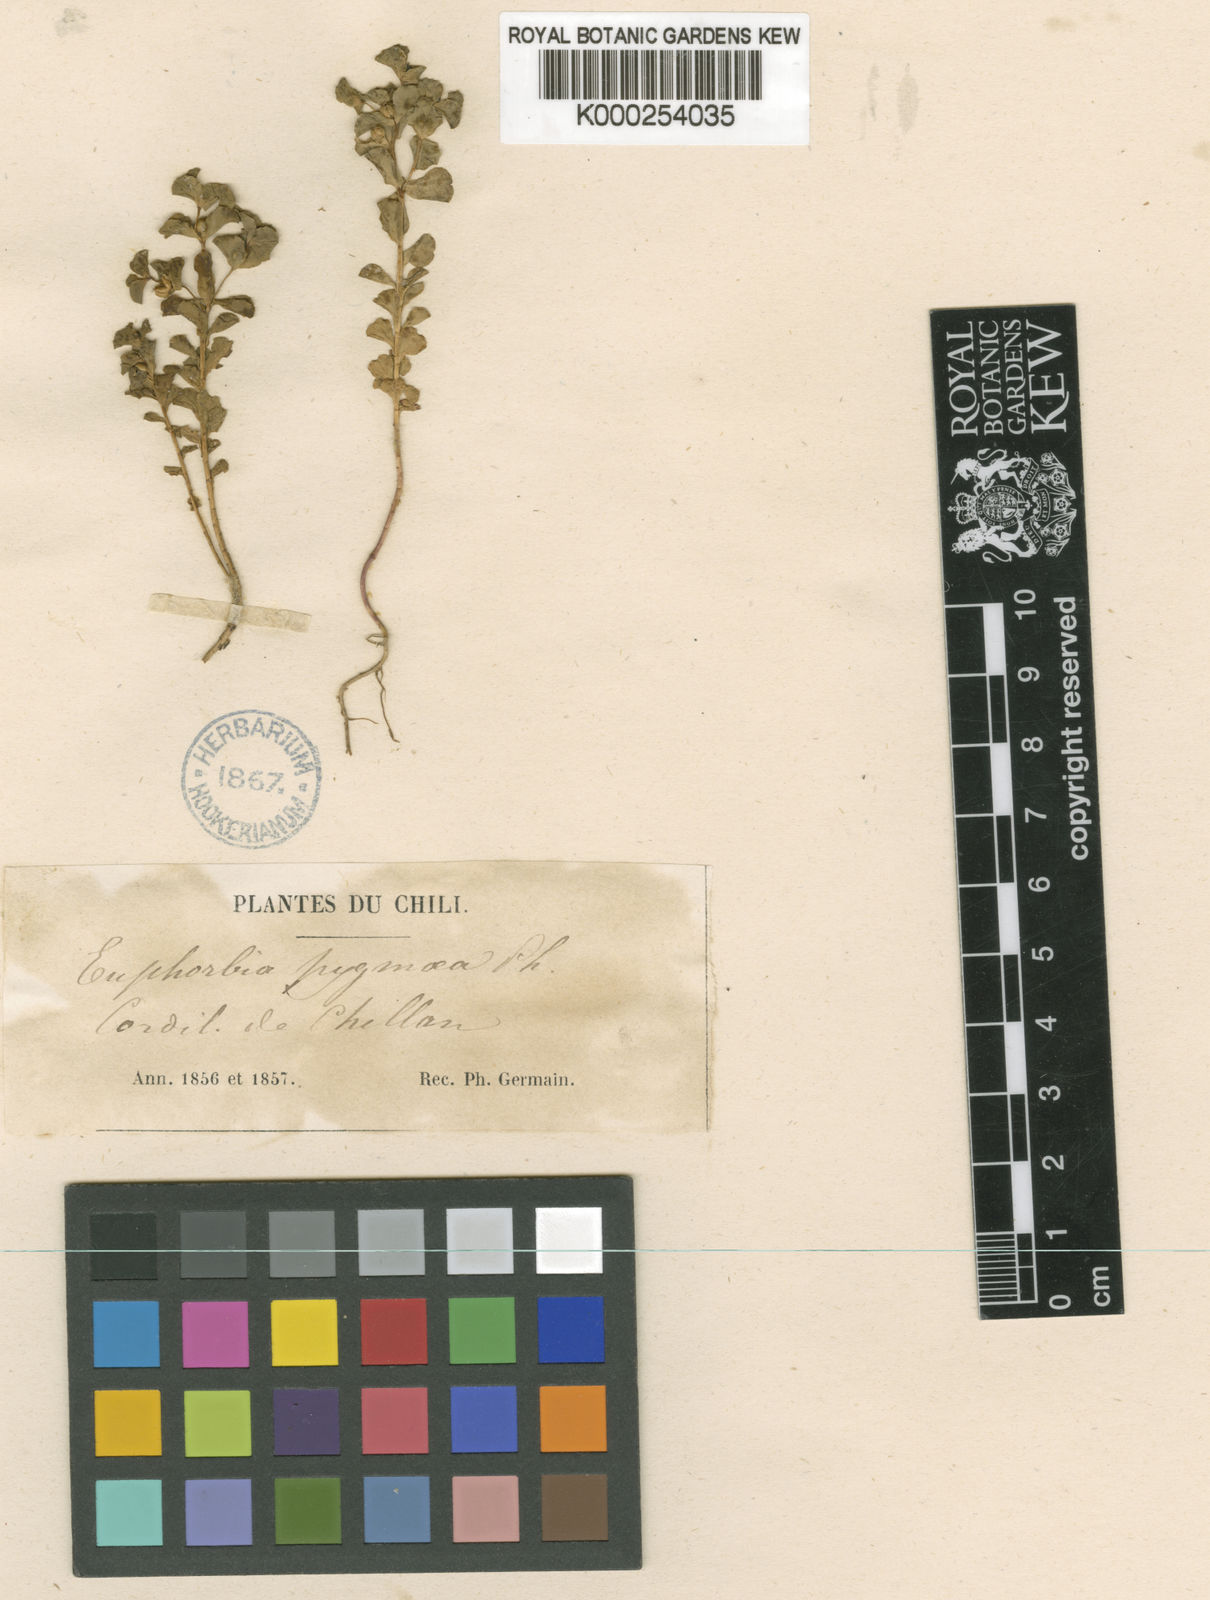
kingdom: Plantae
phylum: Tracheophyta
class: Magnoliopsida
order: Malpighiales
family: Euphorbiaceae
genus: Euphorbia
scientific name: Euphorbia philippiana
